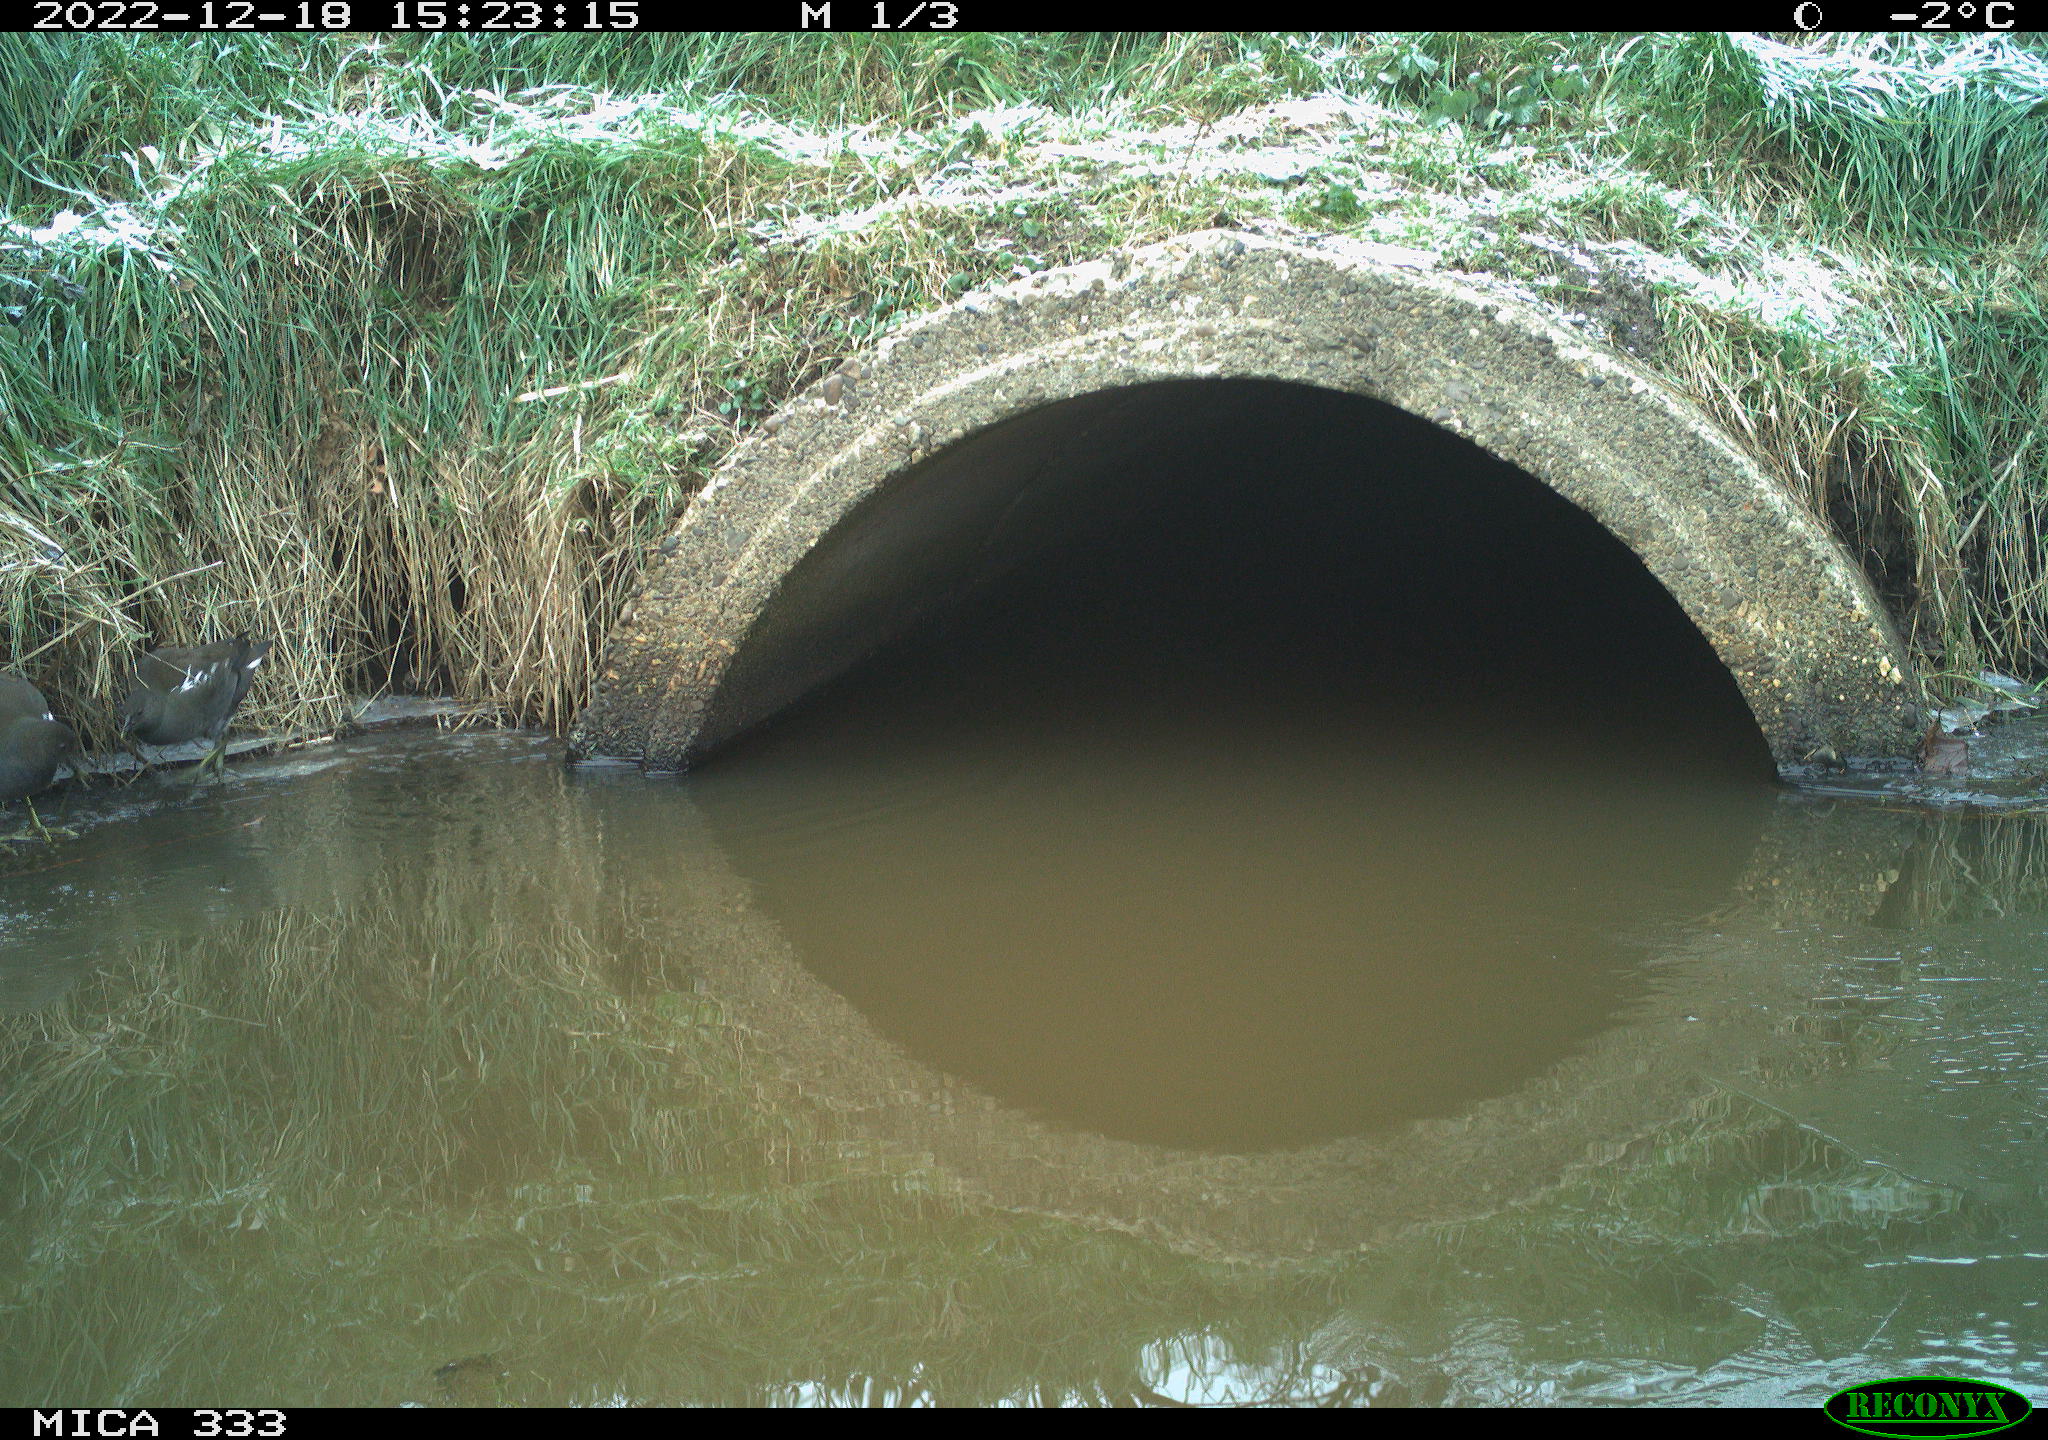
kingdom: Animalia
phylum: Chordata
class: Aves
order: Gruiformes
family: Rallidae
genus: Gallinula
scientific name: Gallinula chloropus
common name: Common moorhen
